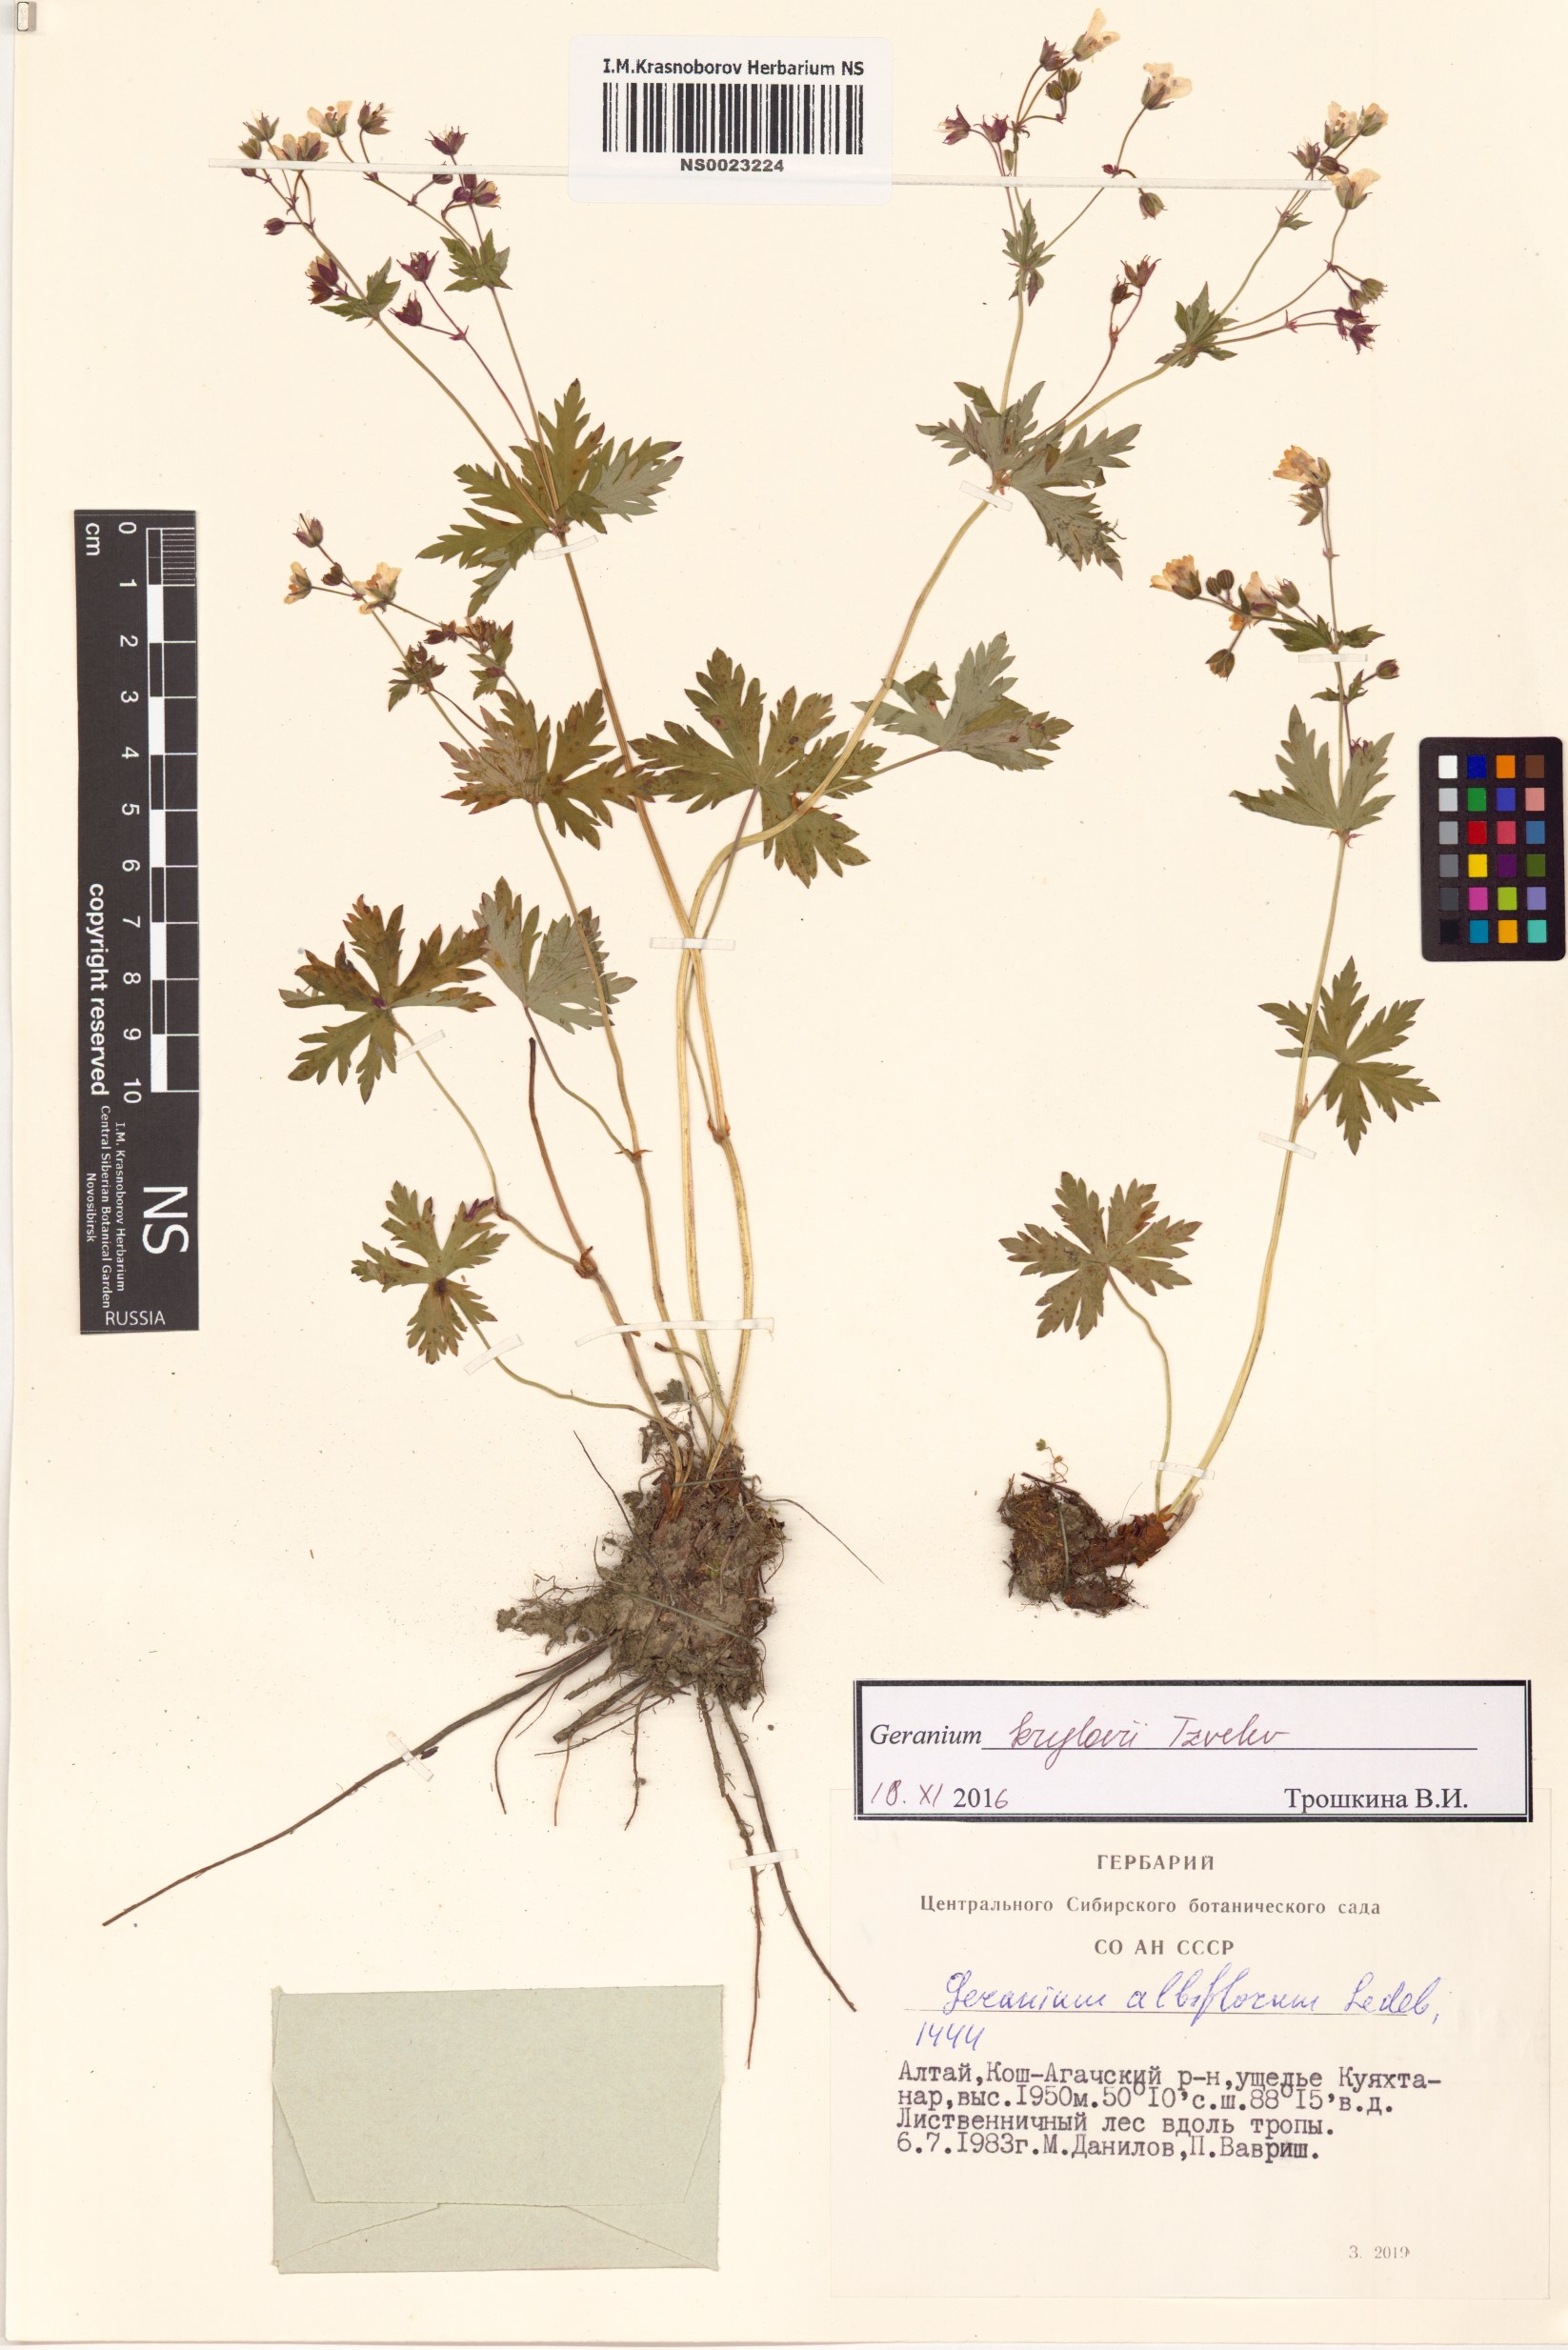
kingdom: Plantae
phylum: Tracheophyta
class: Magnoliopsida
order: Geraniales
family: Geraniaceae
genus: Geranium
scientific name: Geranium sylvaticum
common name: Wood crane's-bill
